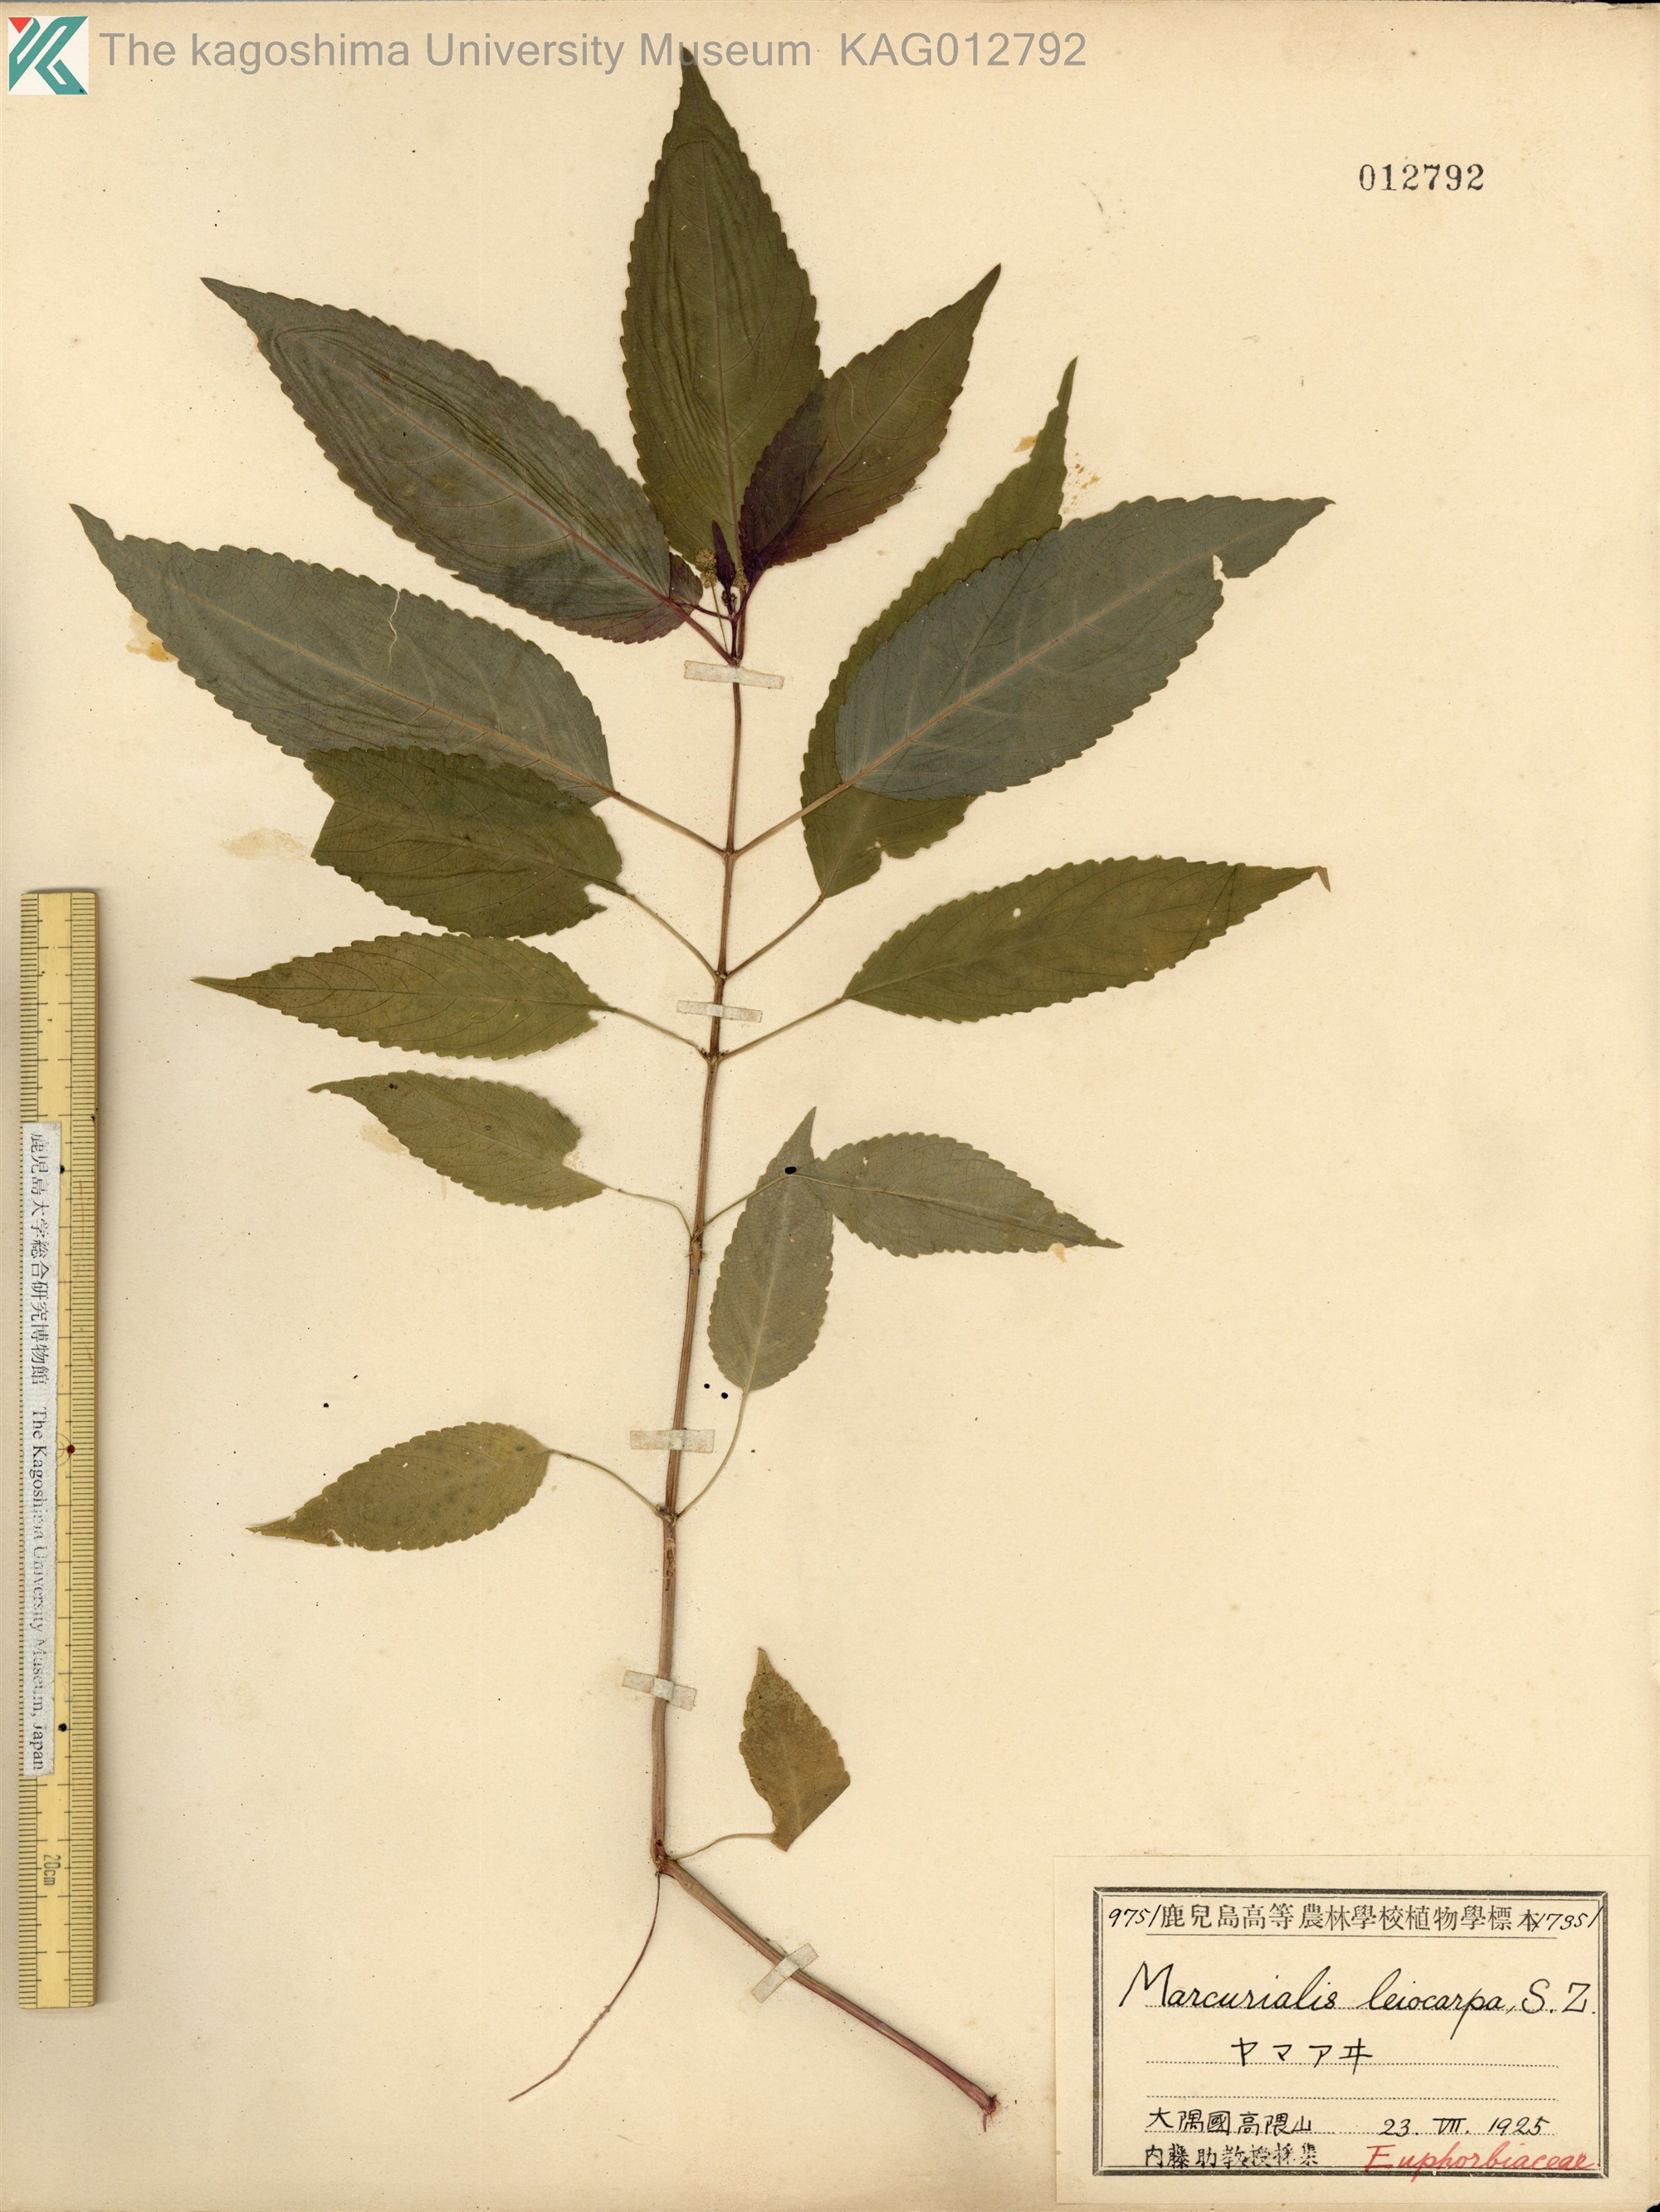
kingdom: Plantae
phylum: Tracheophyta
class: Magnoliopsida
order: Malpighiales
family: Euphorbiaceae
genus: Mercurialis
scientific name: Mercurialis leiocarpa
